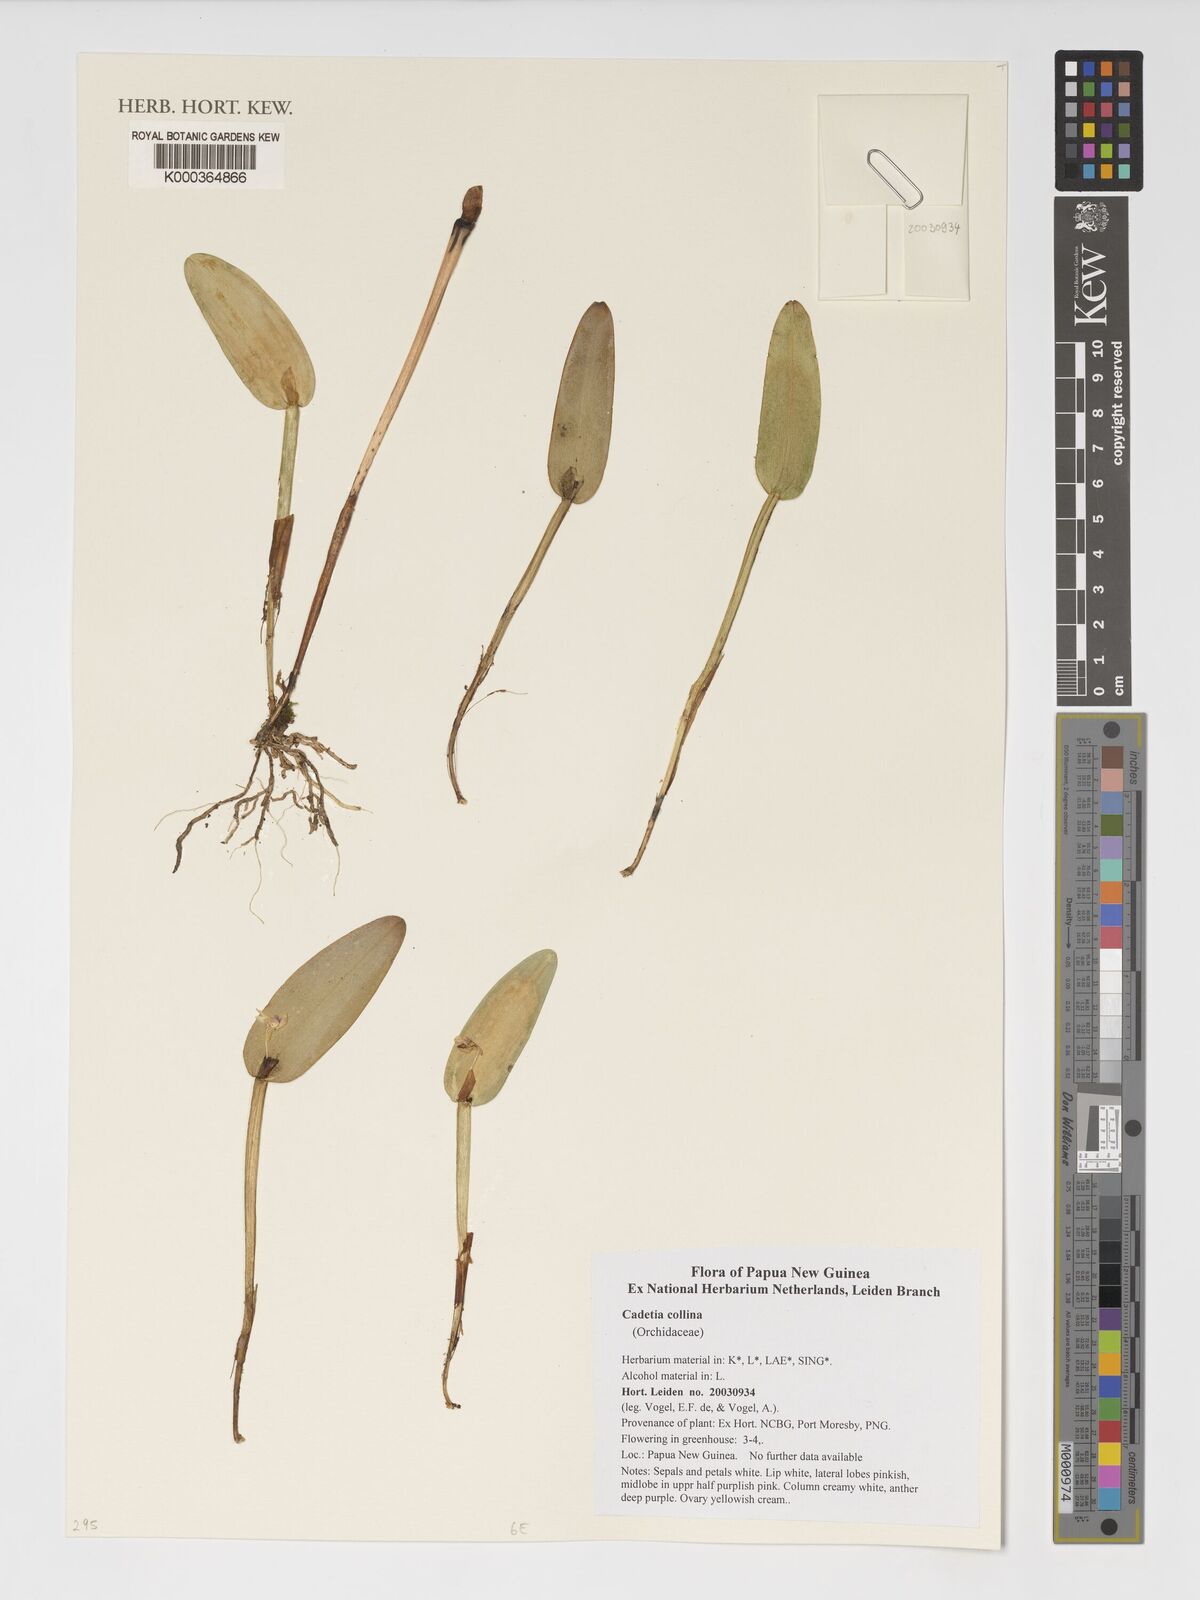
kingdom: Plantae
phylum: Tracheophyta
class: Liliopsida
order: Asparagales
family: Orchidaceae
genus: Dendrobium
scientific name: Dendrobium versteegii
